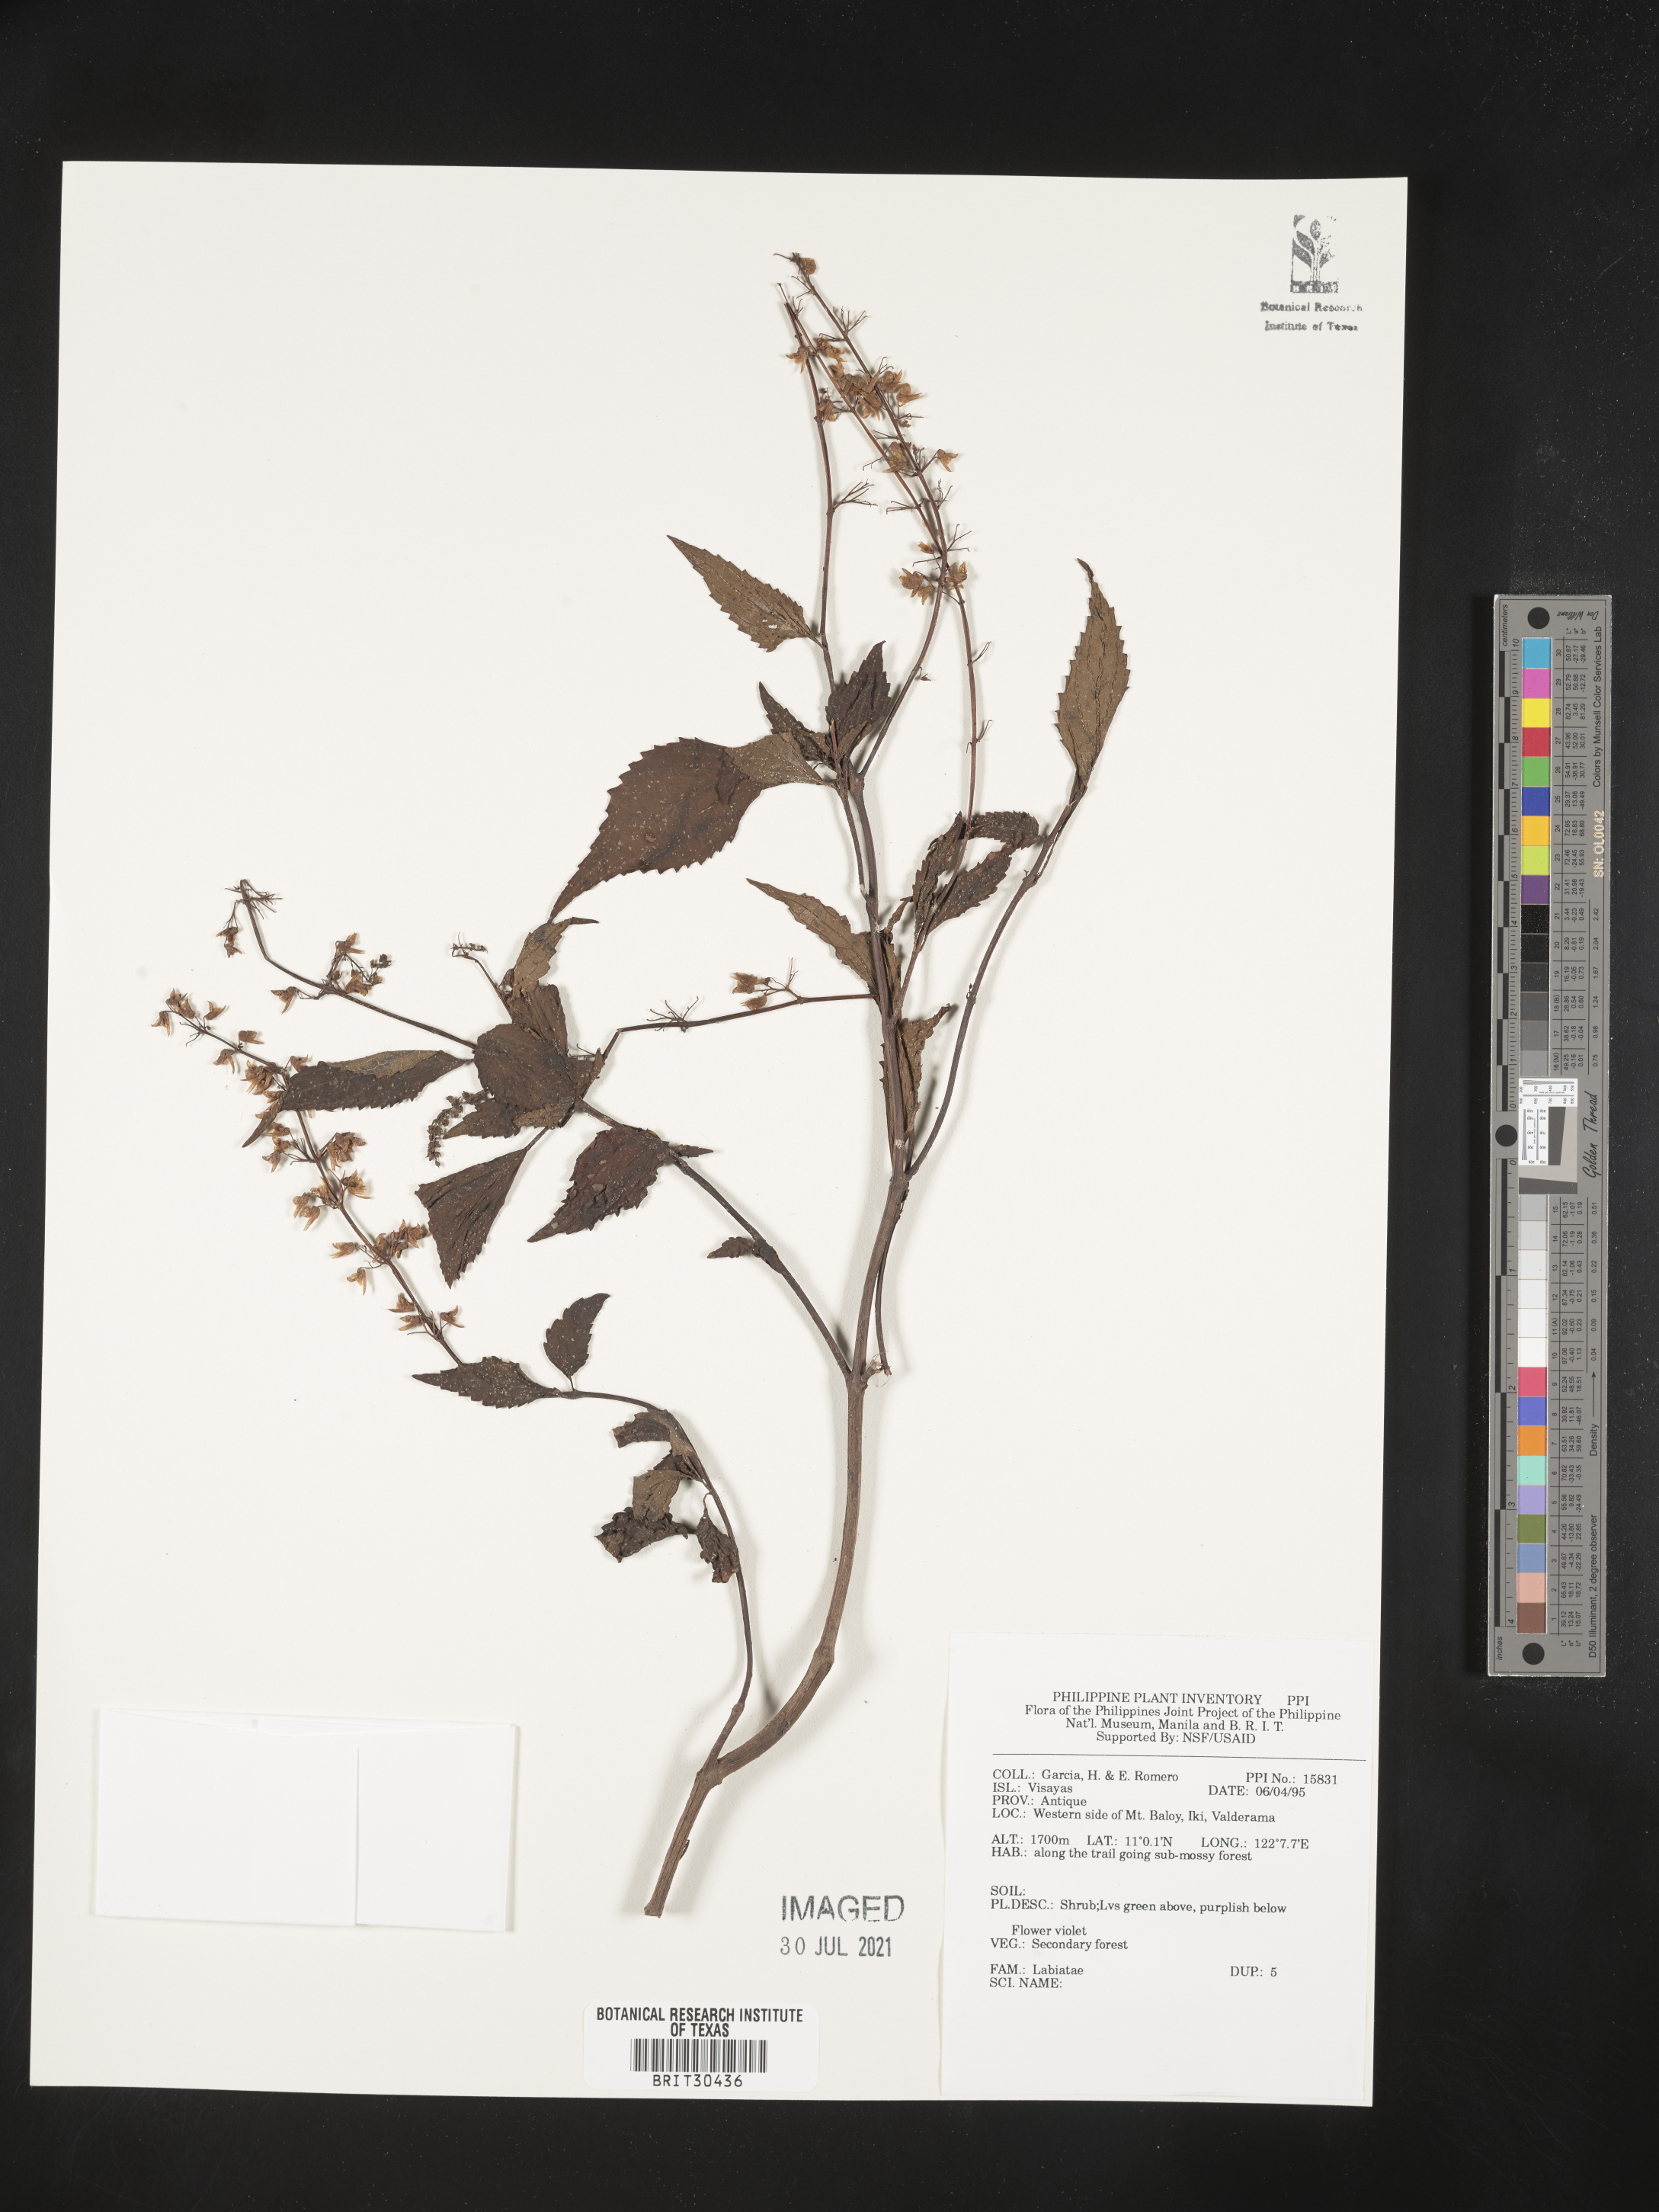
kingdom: Plantae
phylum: Tracheophyta
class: Magnoliopsida
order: Lamiales
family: Lamiaceae
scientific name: Lamiaceae
